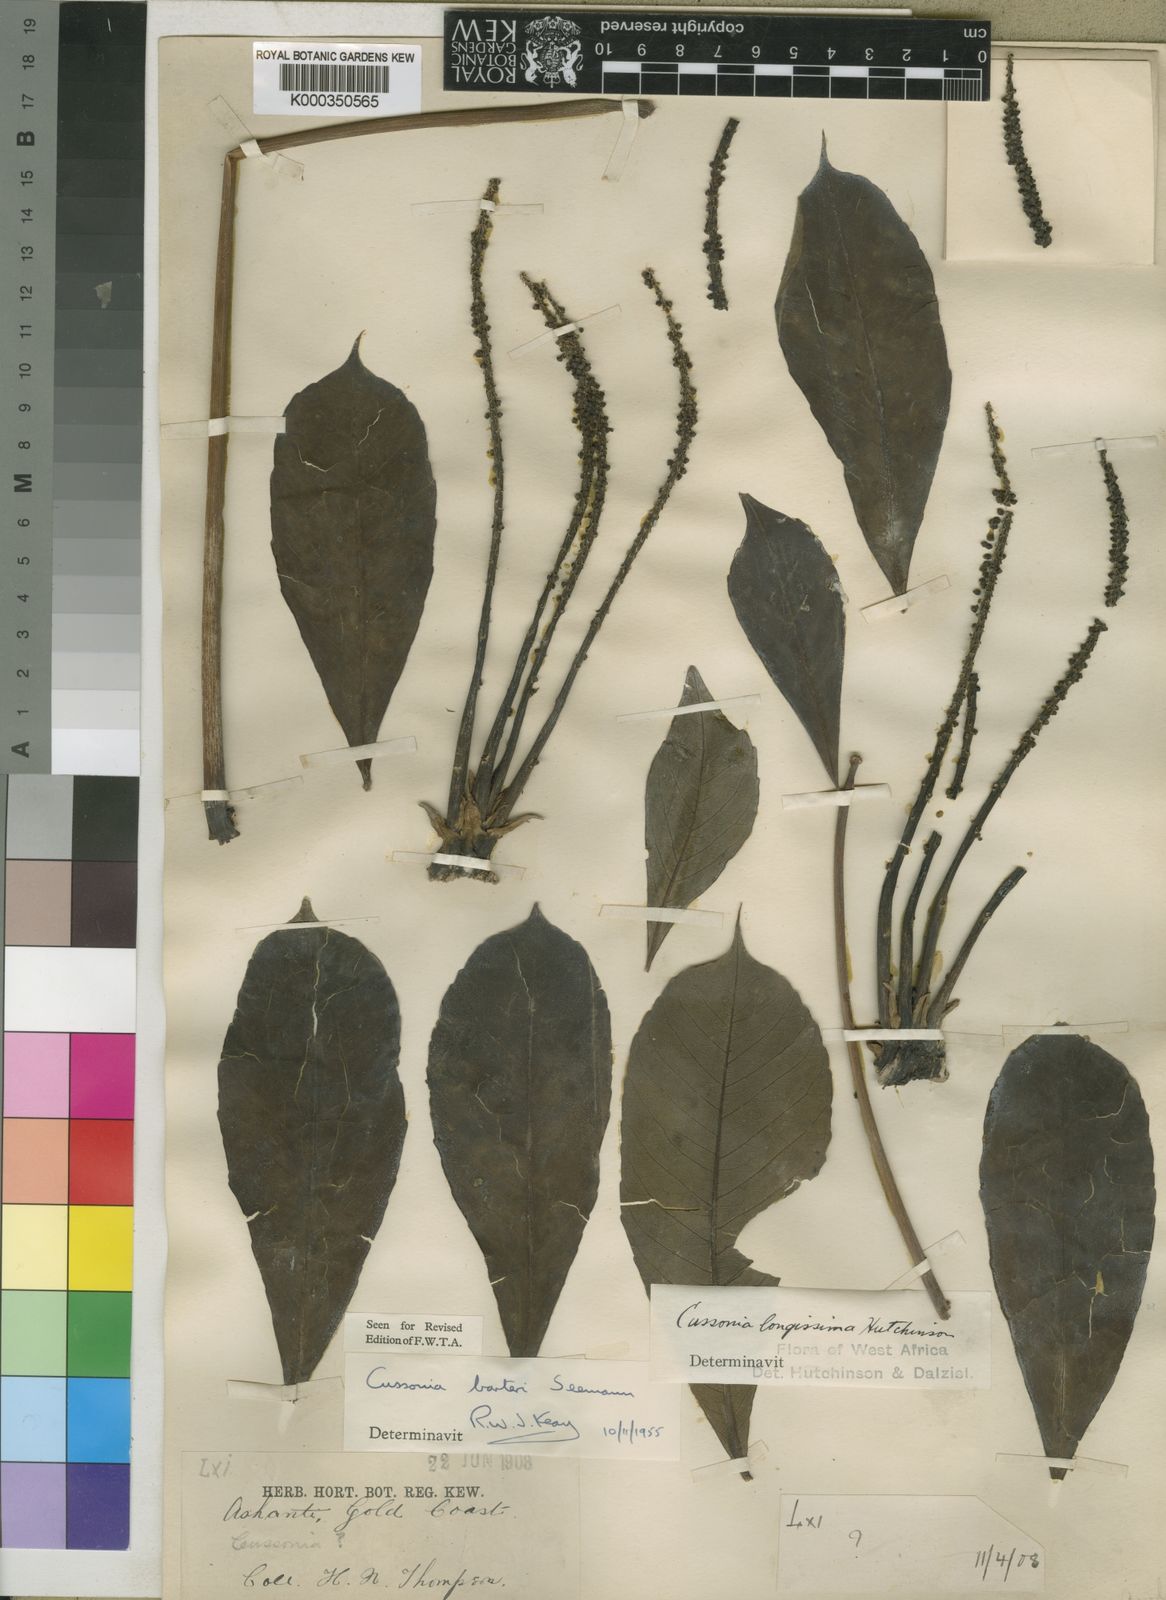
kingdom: Plantae
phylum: Tracheophyta
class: Magnoliopsida
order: Apiales
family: Araliaceae
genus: Cussonia
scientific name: Cussonia arborea
